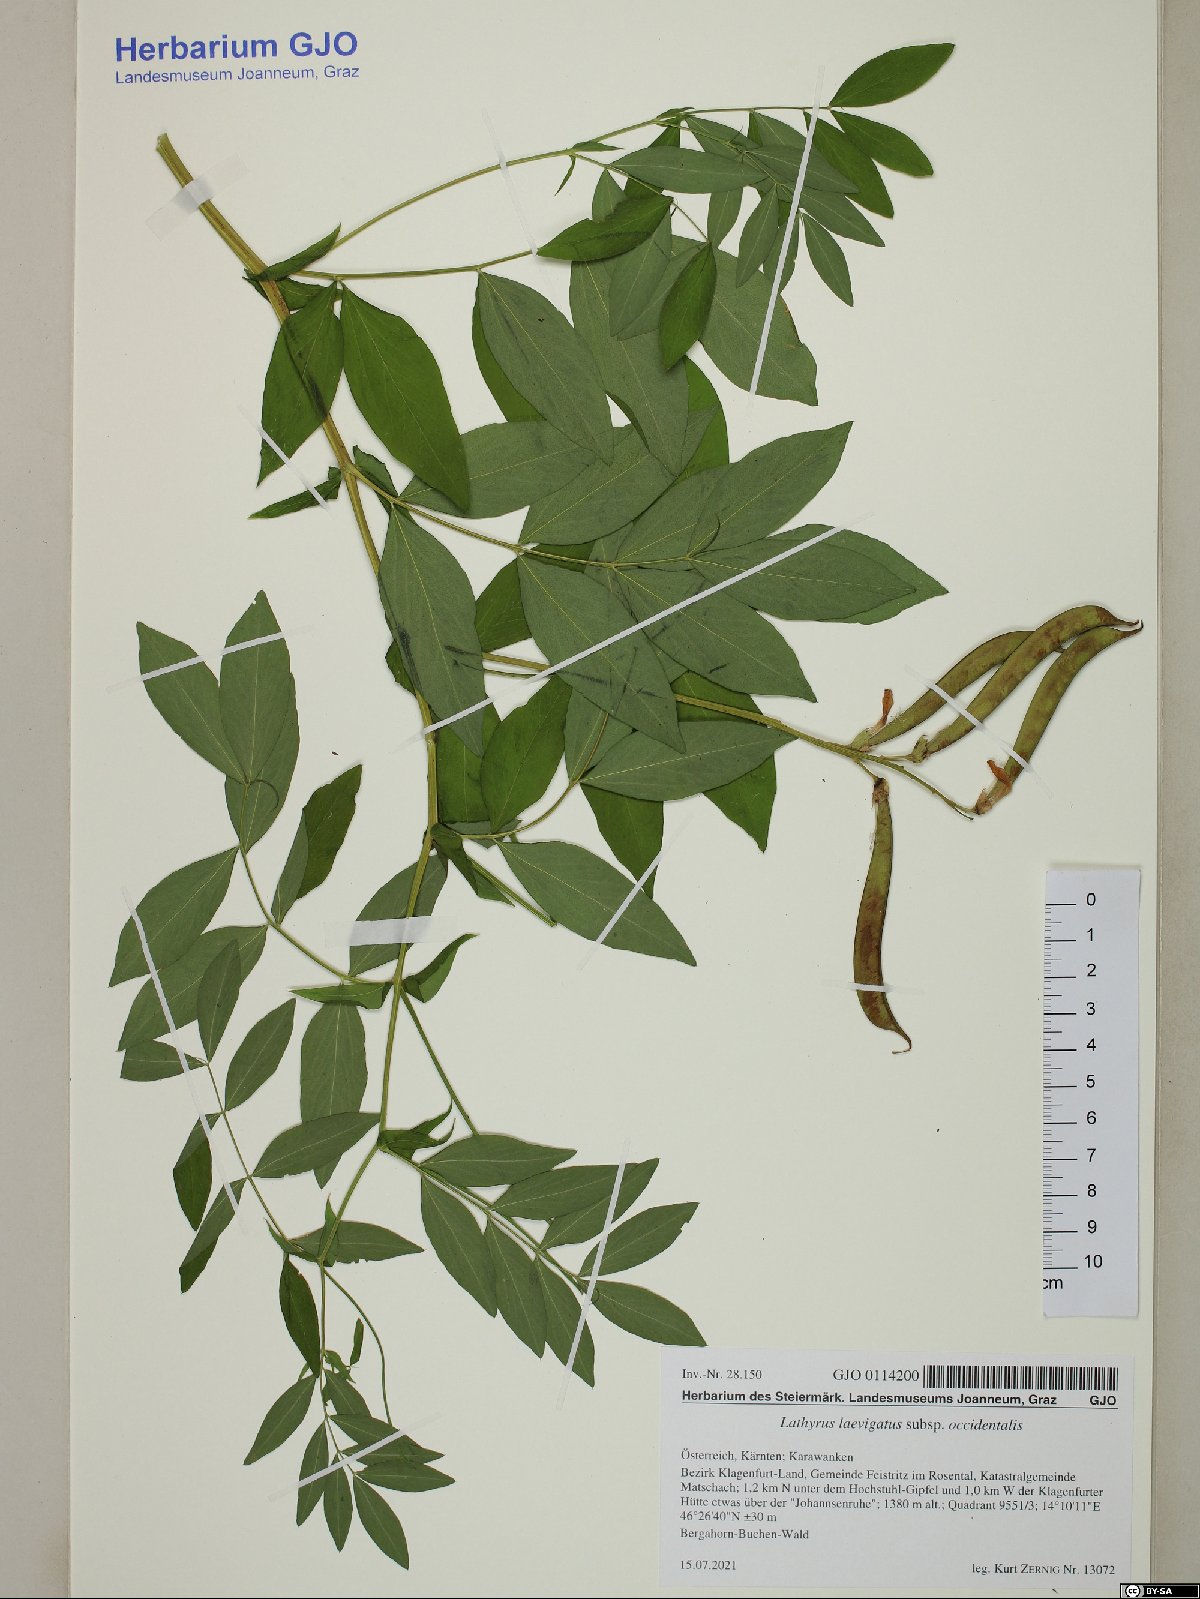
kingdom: Plantae
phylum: Tracheophyta
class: Magnoliopsida
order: Fabales
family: Fabaceae
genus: Lathyrus
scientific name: Lathyrus laevigatus
